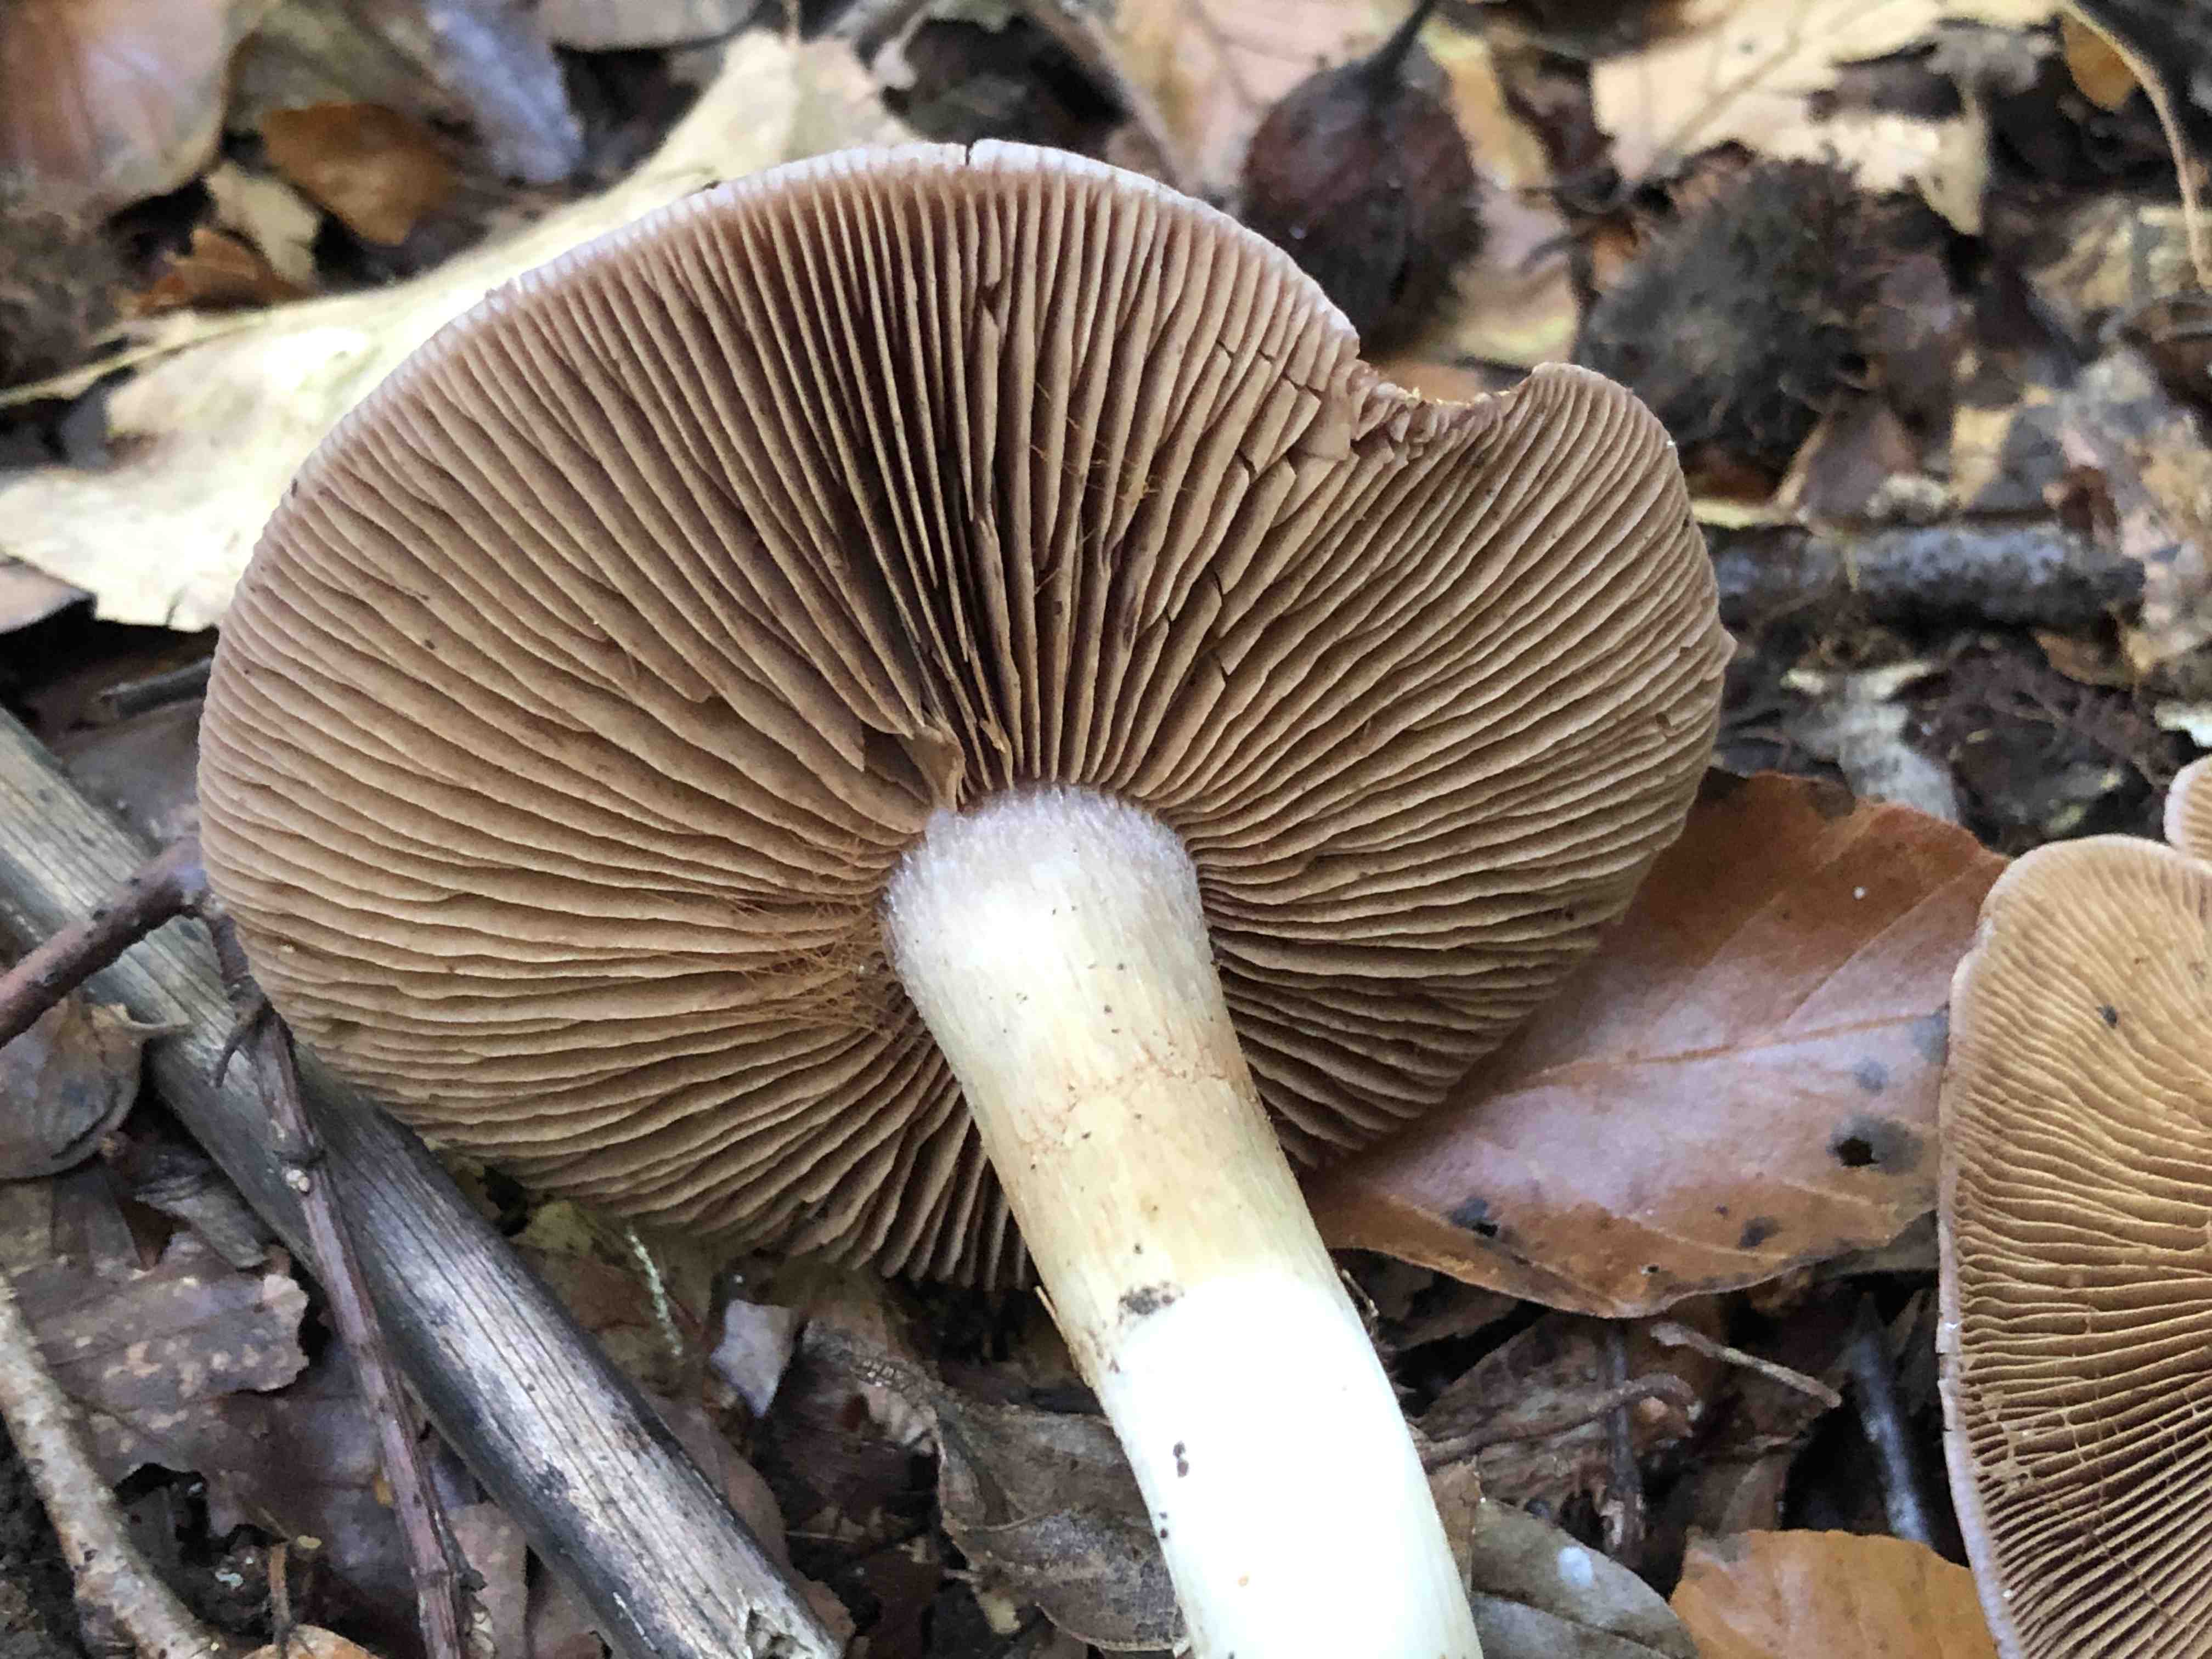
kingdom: Fungi
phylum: Basidiomycota
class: Agaricomycetes
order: Agaricales
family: Cortinariaceae
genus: Cortinarius
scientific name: Cortinarius largus
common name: violetrandet slørhat
